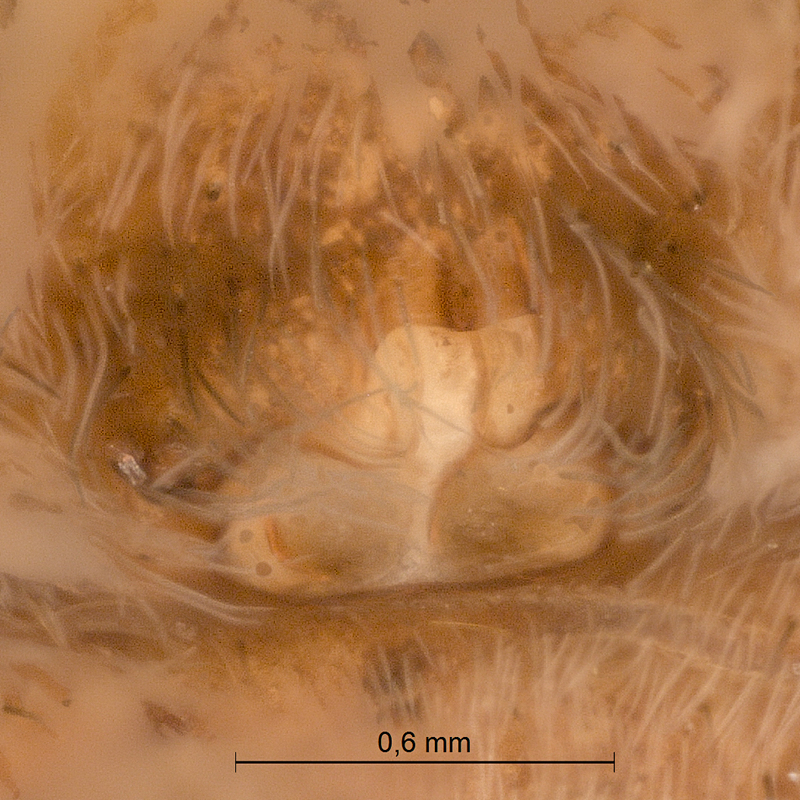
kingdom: Animalia
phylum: Arthropoda
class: Arachnida
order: Araneae
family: Lycosidae
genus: Pardosa
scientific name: Pardosa lugubris
